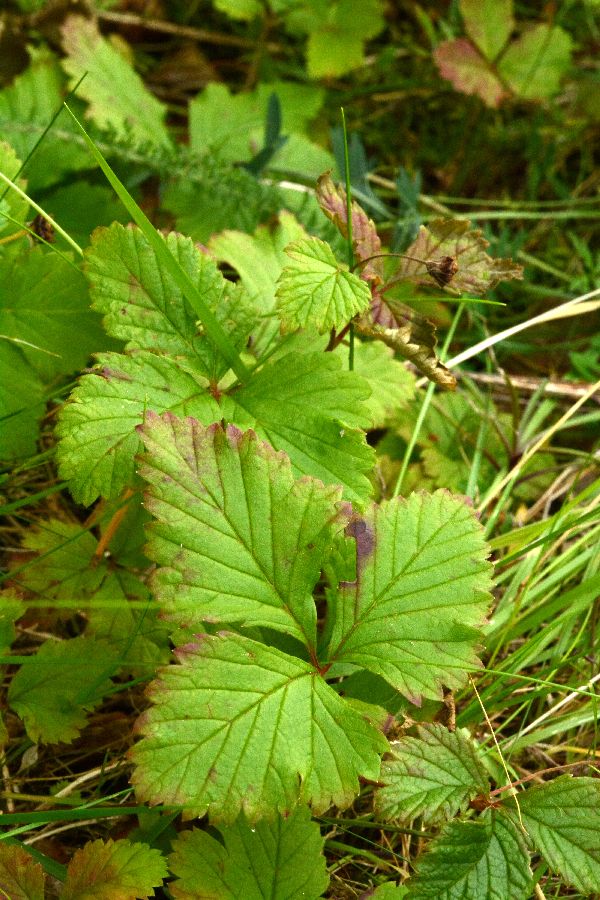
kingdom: Plantae
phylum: Tracheophyta
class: Magnoliopsida
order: Rosales
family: Rosaceae
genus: Rubus
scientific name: Rubus arcticus
